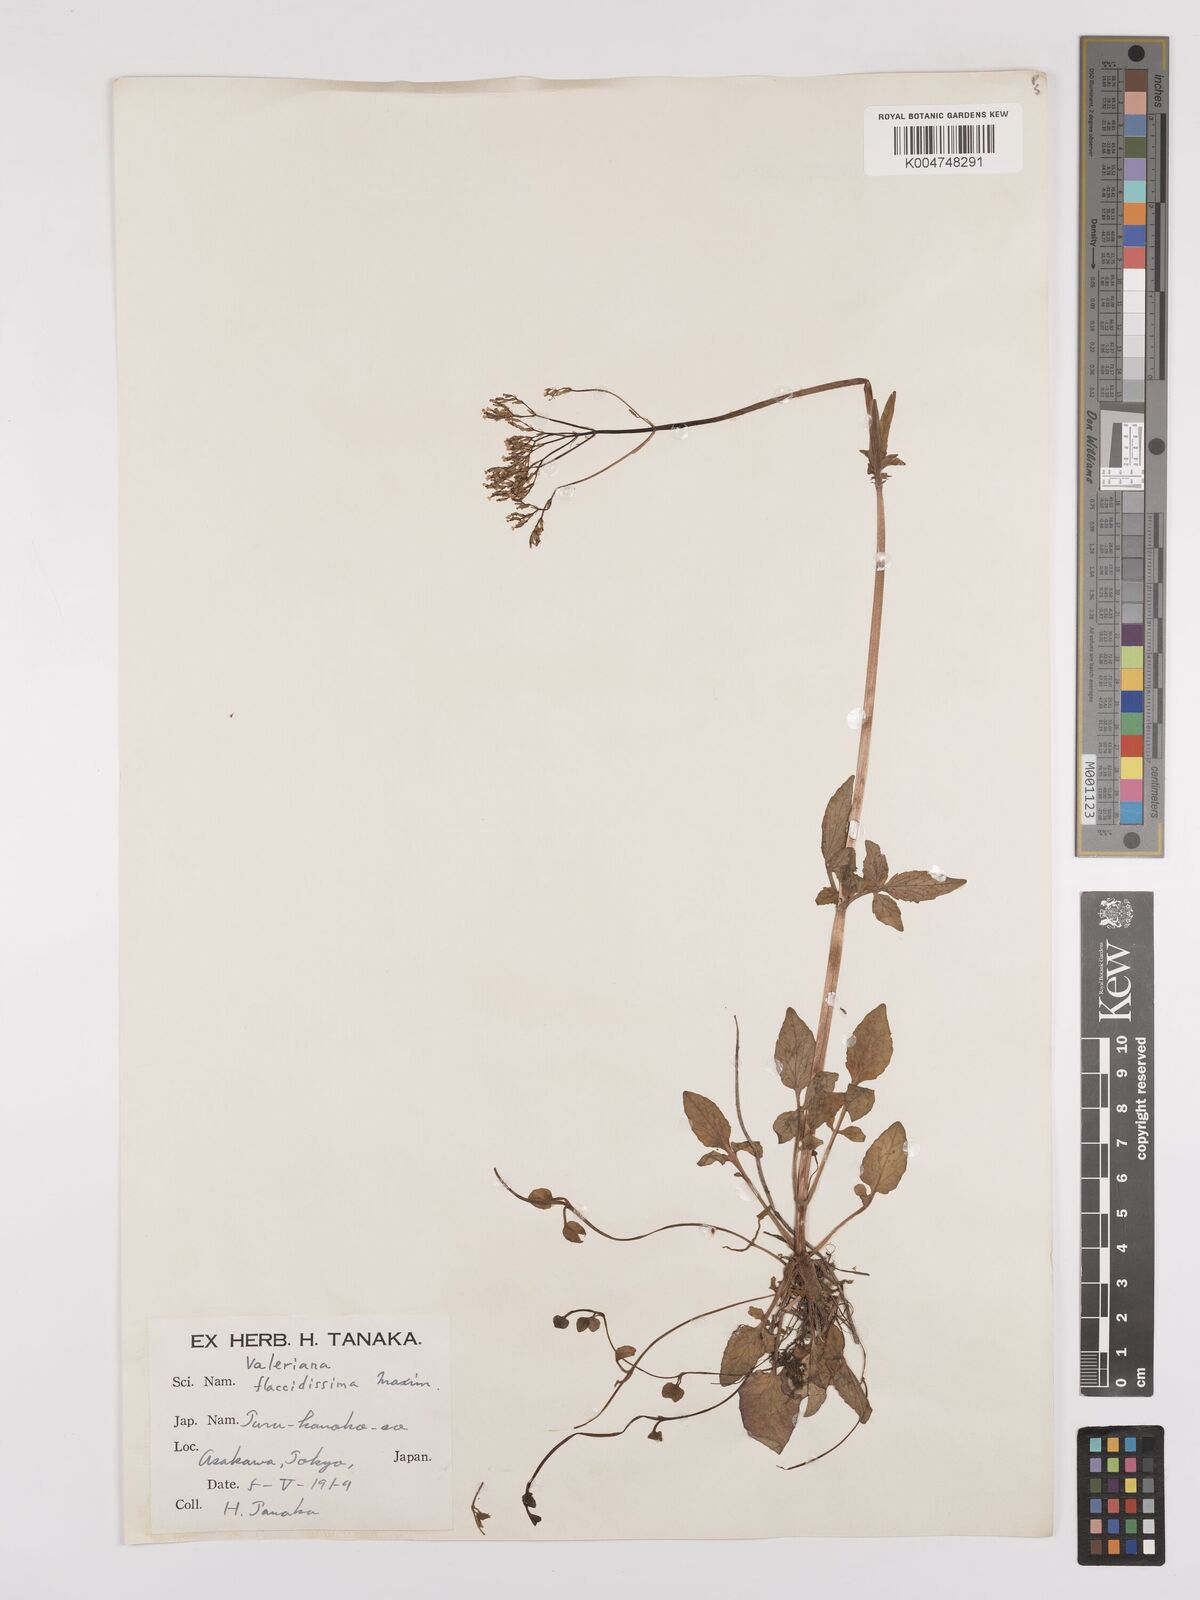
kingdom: Plantae
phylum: Tracheophyta
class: Magnoliopsida
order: Dipsacales
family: Caprifoliaceae
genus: Valeriana
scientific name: Valeriana flaccidissima
